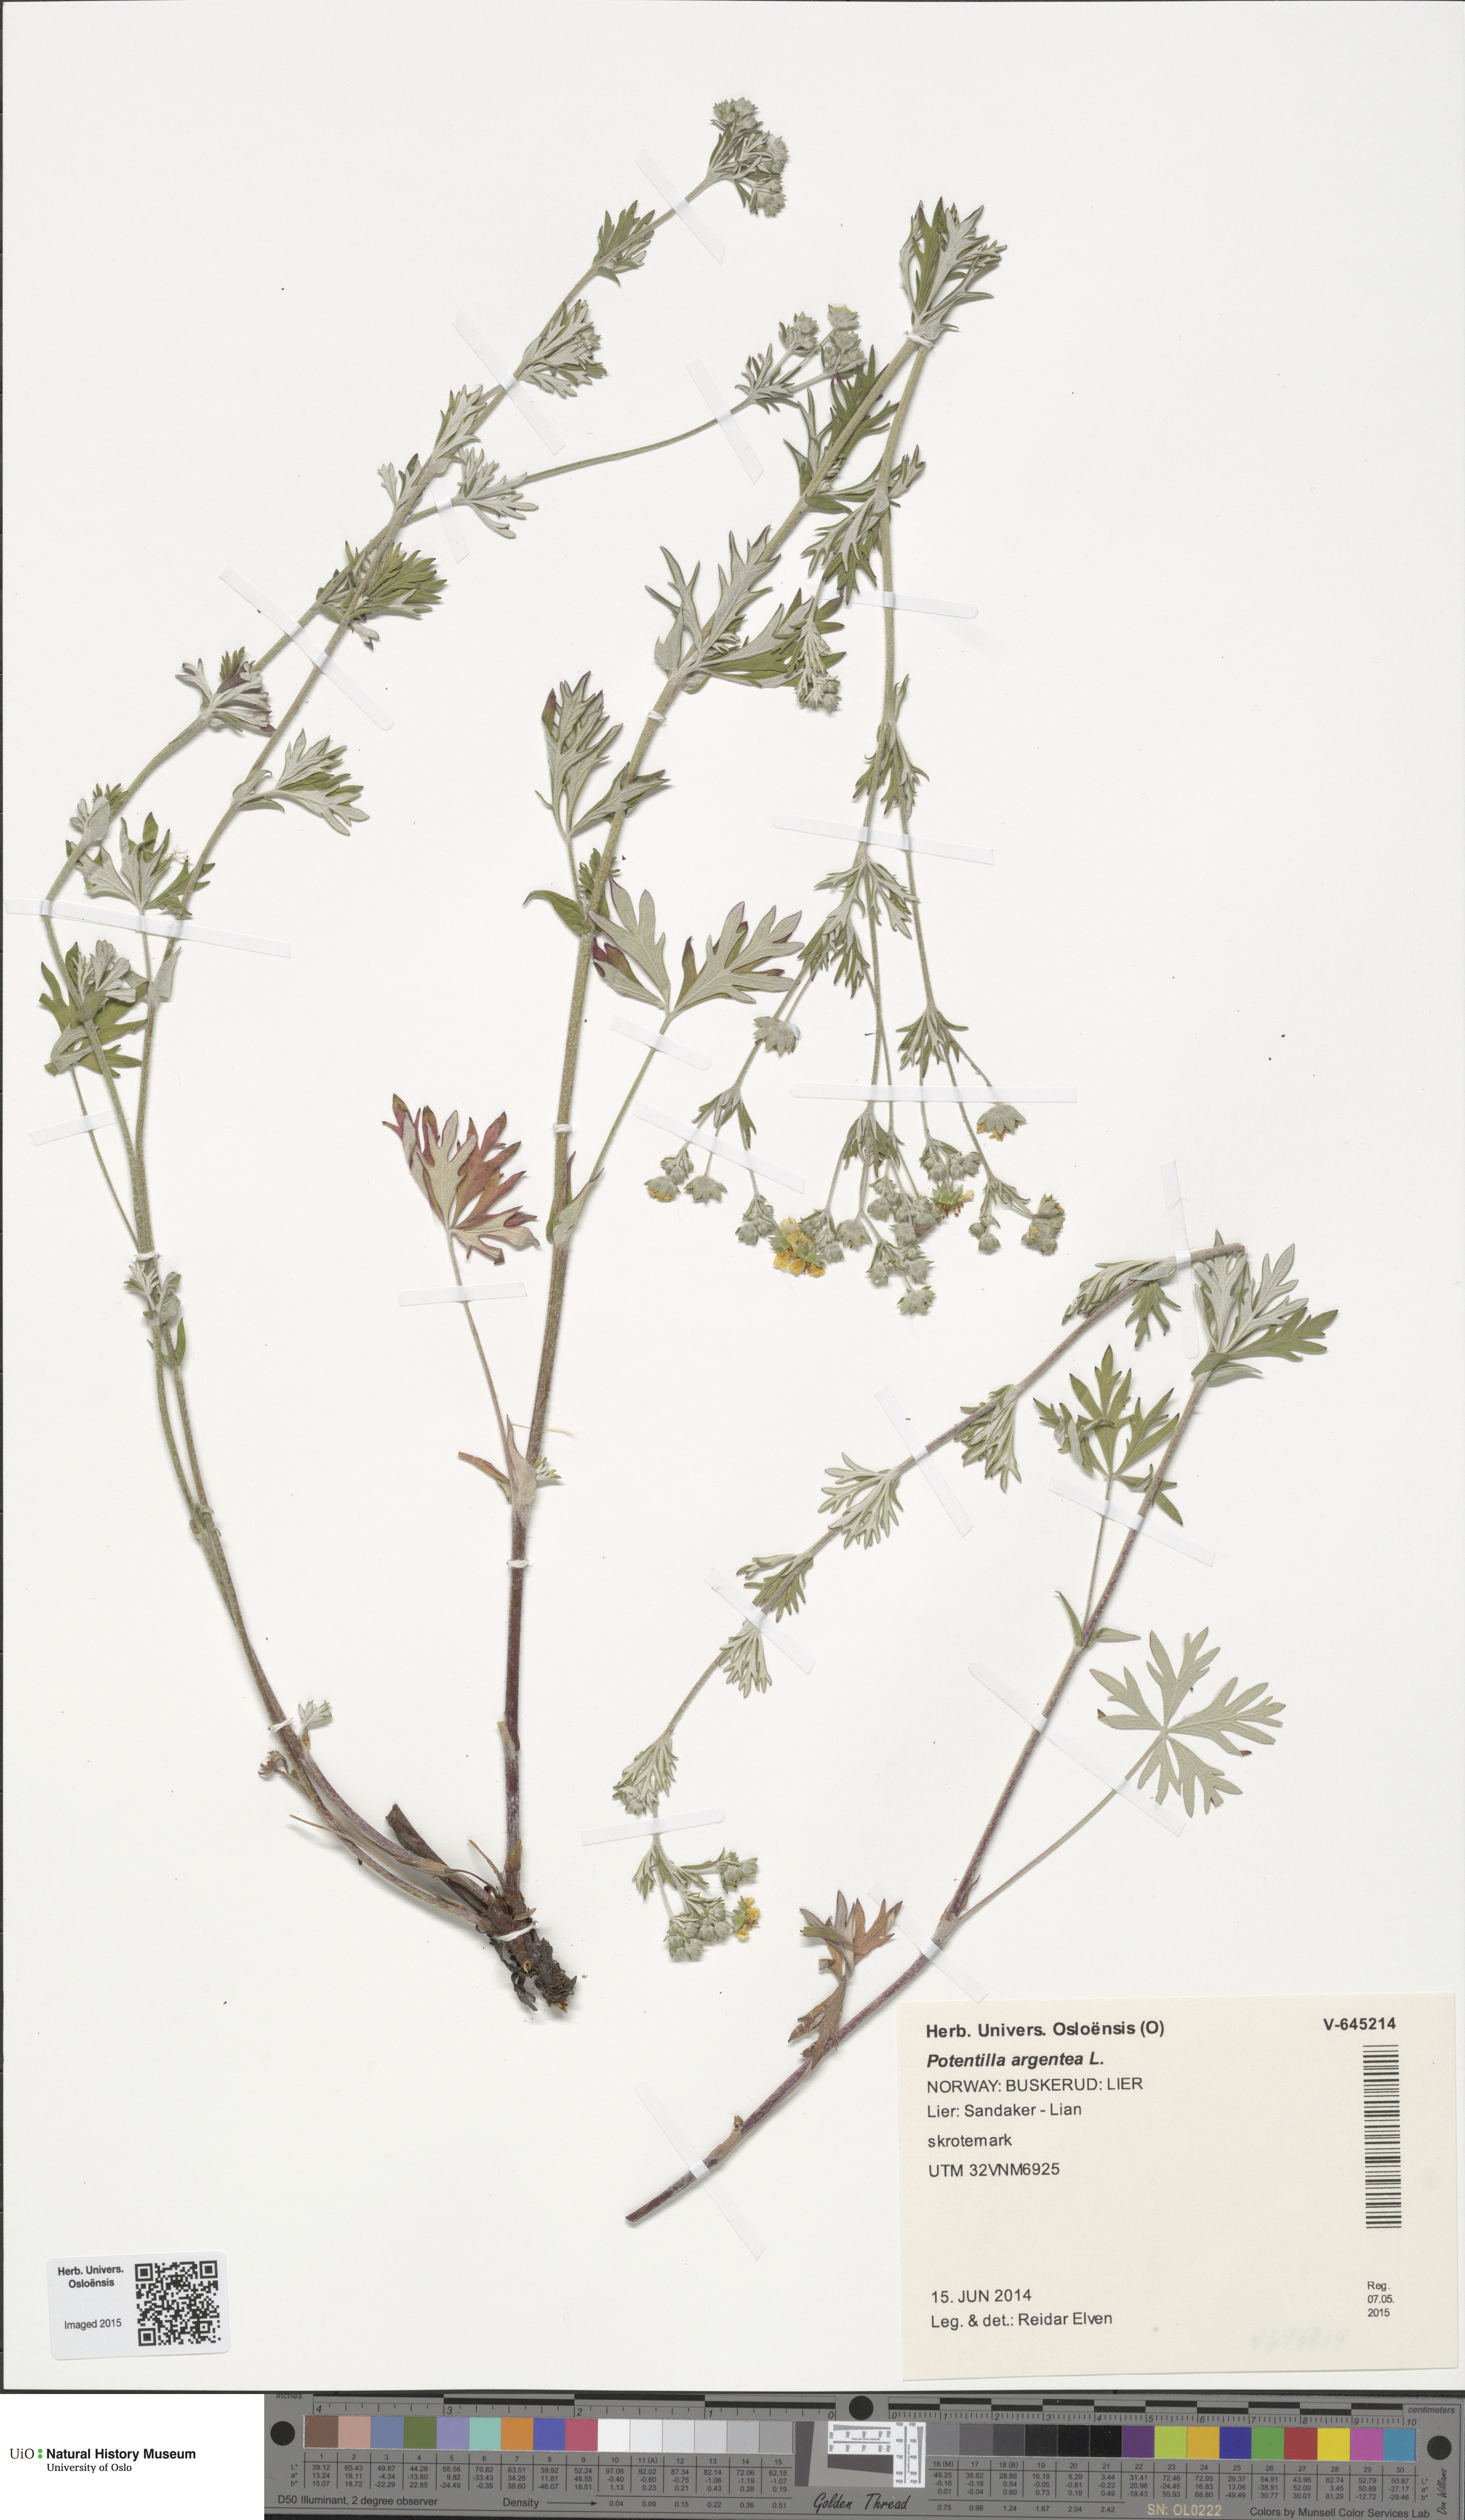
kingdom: Plantae
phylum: Tracheophyta
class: Magnoliopsida
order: Rosales
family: Rosaceae
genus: Potentilla
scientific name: Potentilla argentea
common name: Hoary cinquefoil
